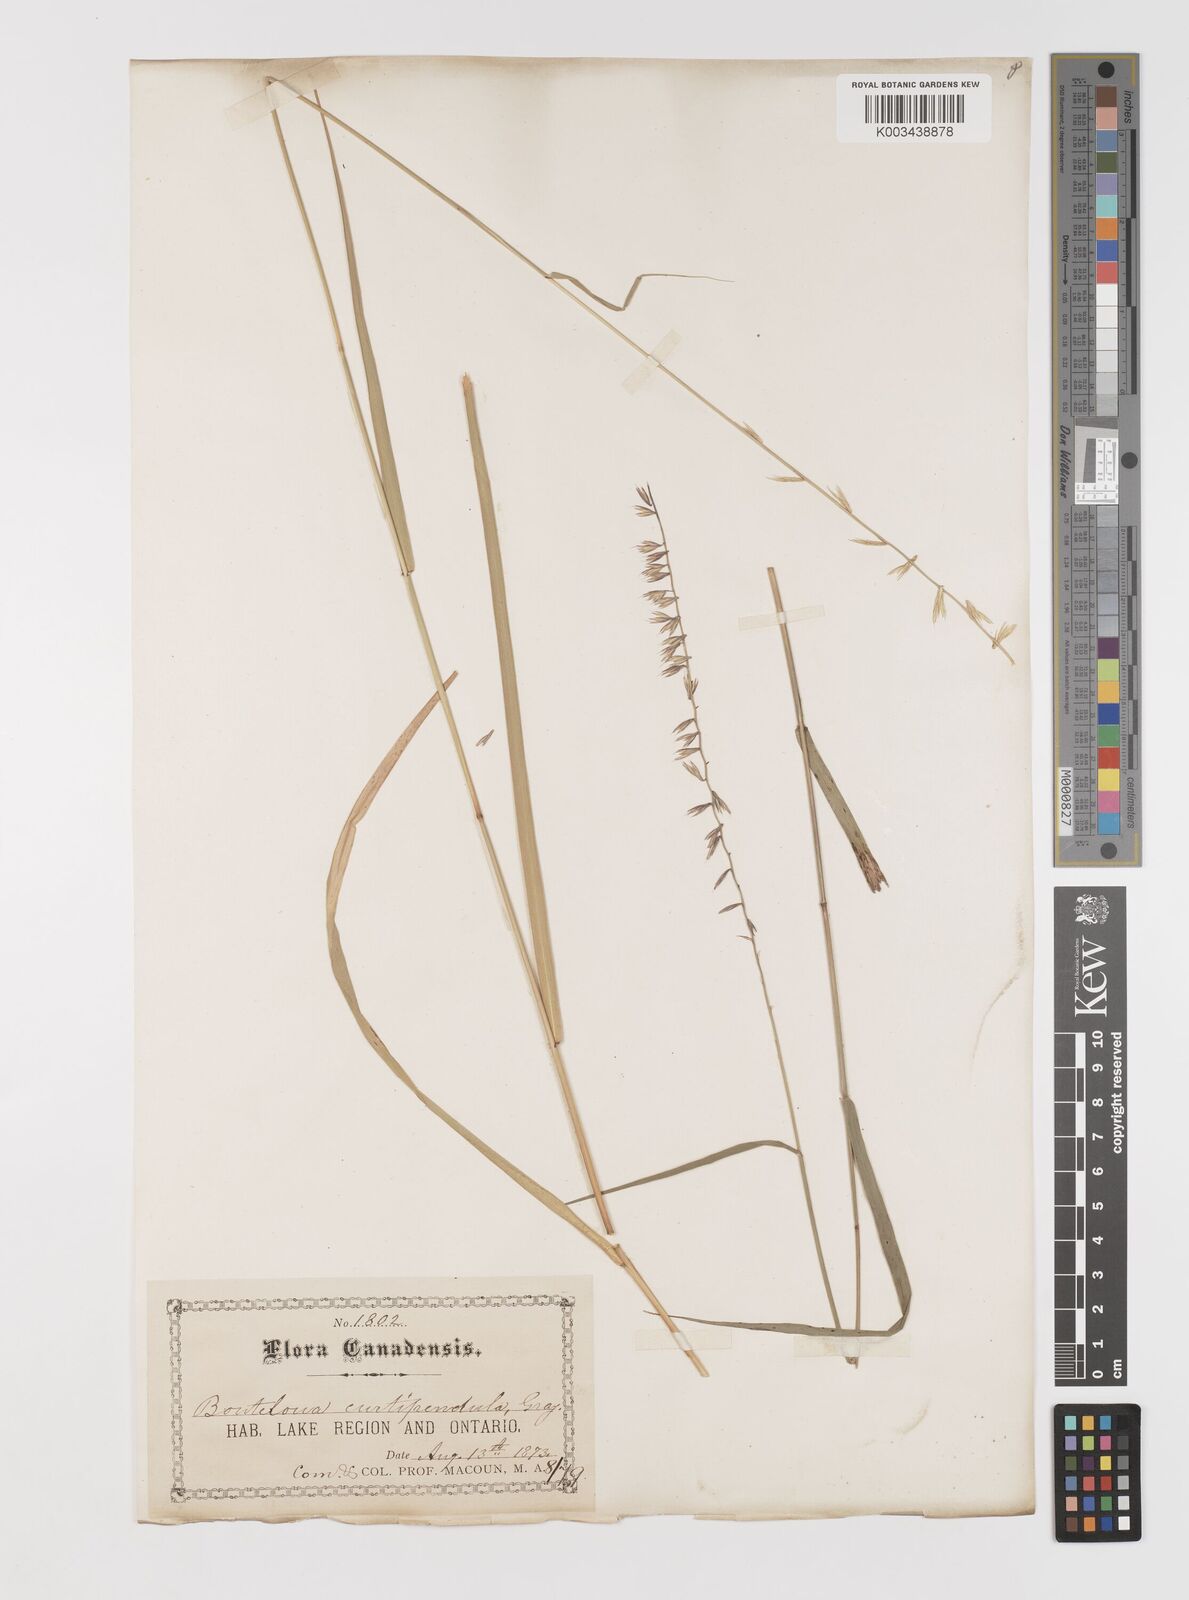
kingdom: Plantae
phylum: Tracheophyta
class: Liliopsida
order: Poales
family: Poaceae
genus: Bouteloua
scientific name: Bouteloua curtipendula
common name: Side-oats grama
